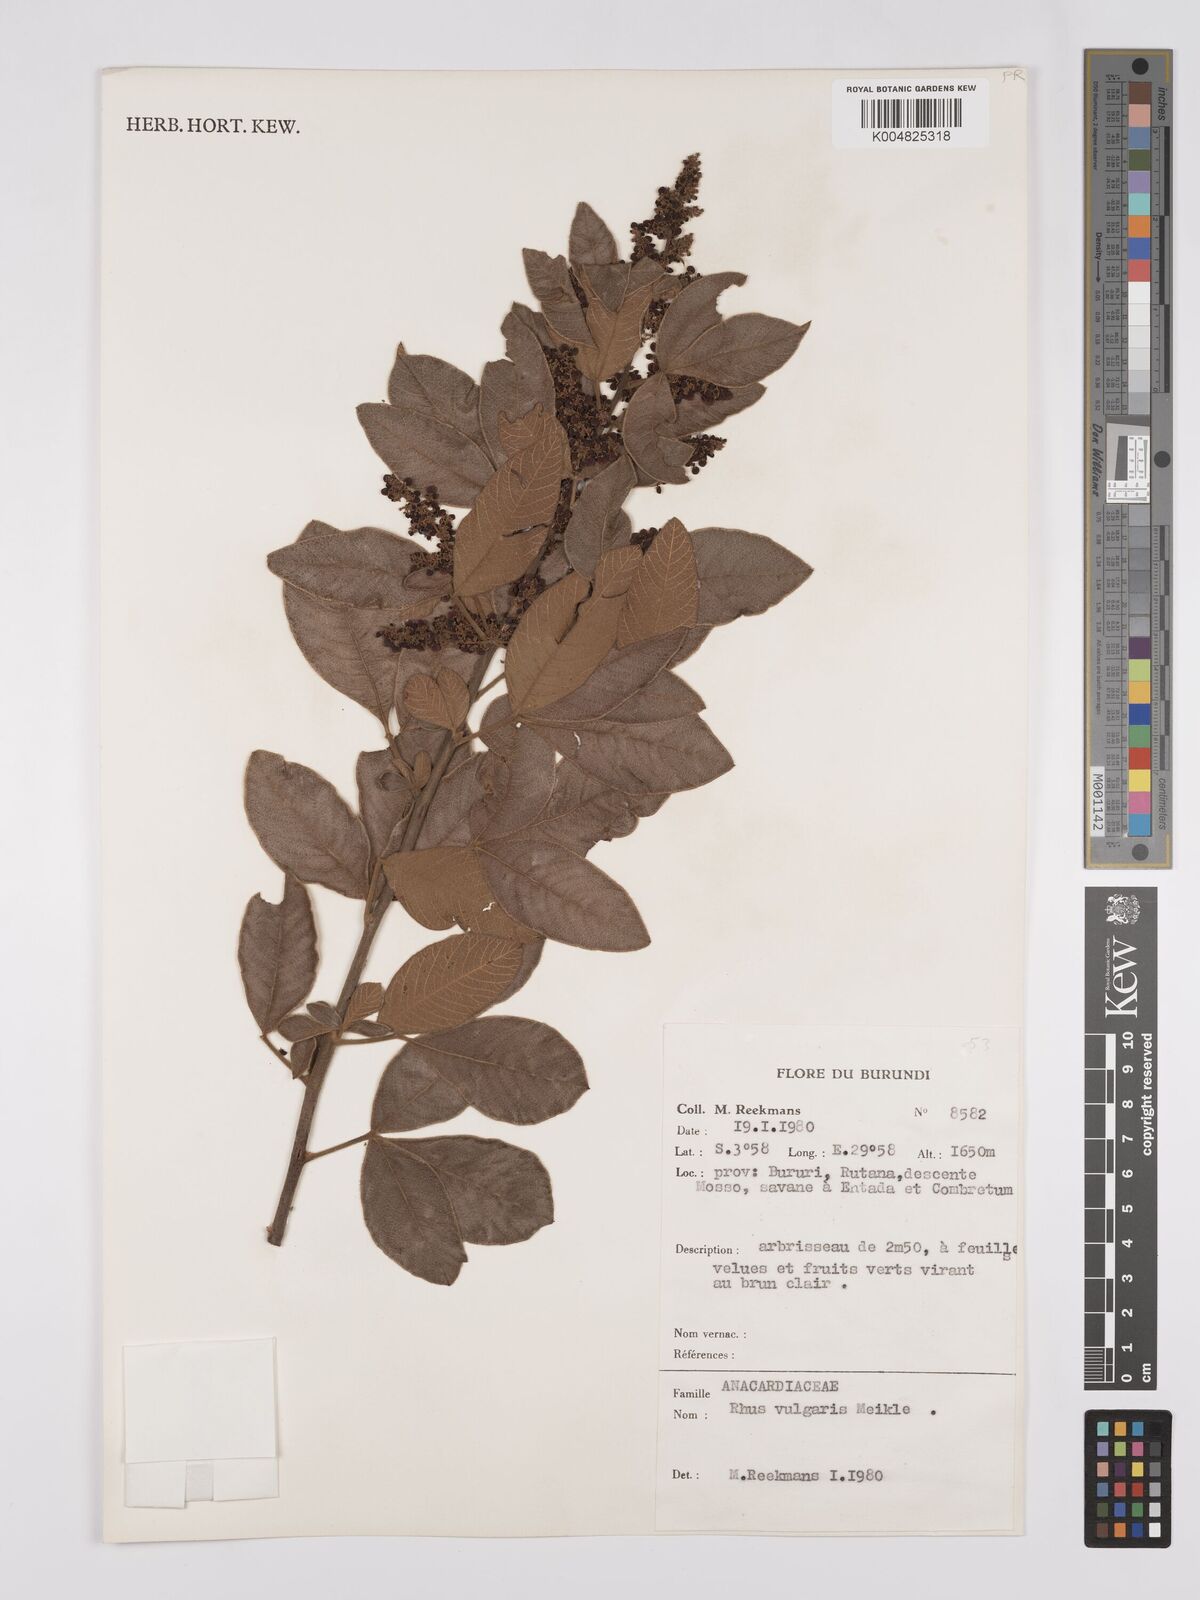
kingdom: Plantae
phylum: Tracheophyta
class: Magnoliopsida
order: Sapindales
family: Anacardiaceae
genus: Searsia
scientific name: Searsia pyroides
